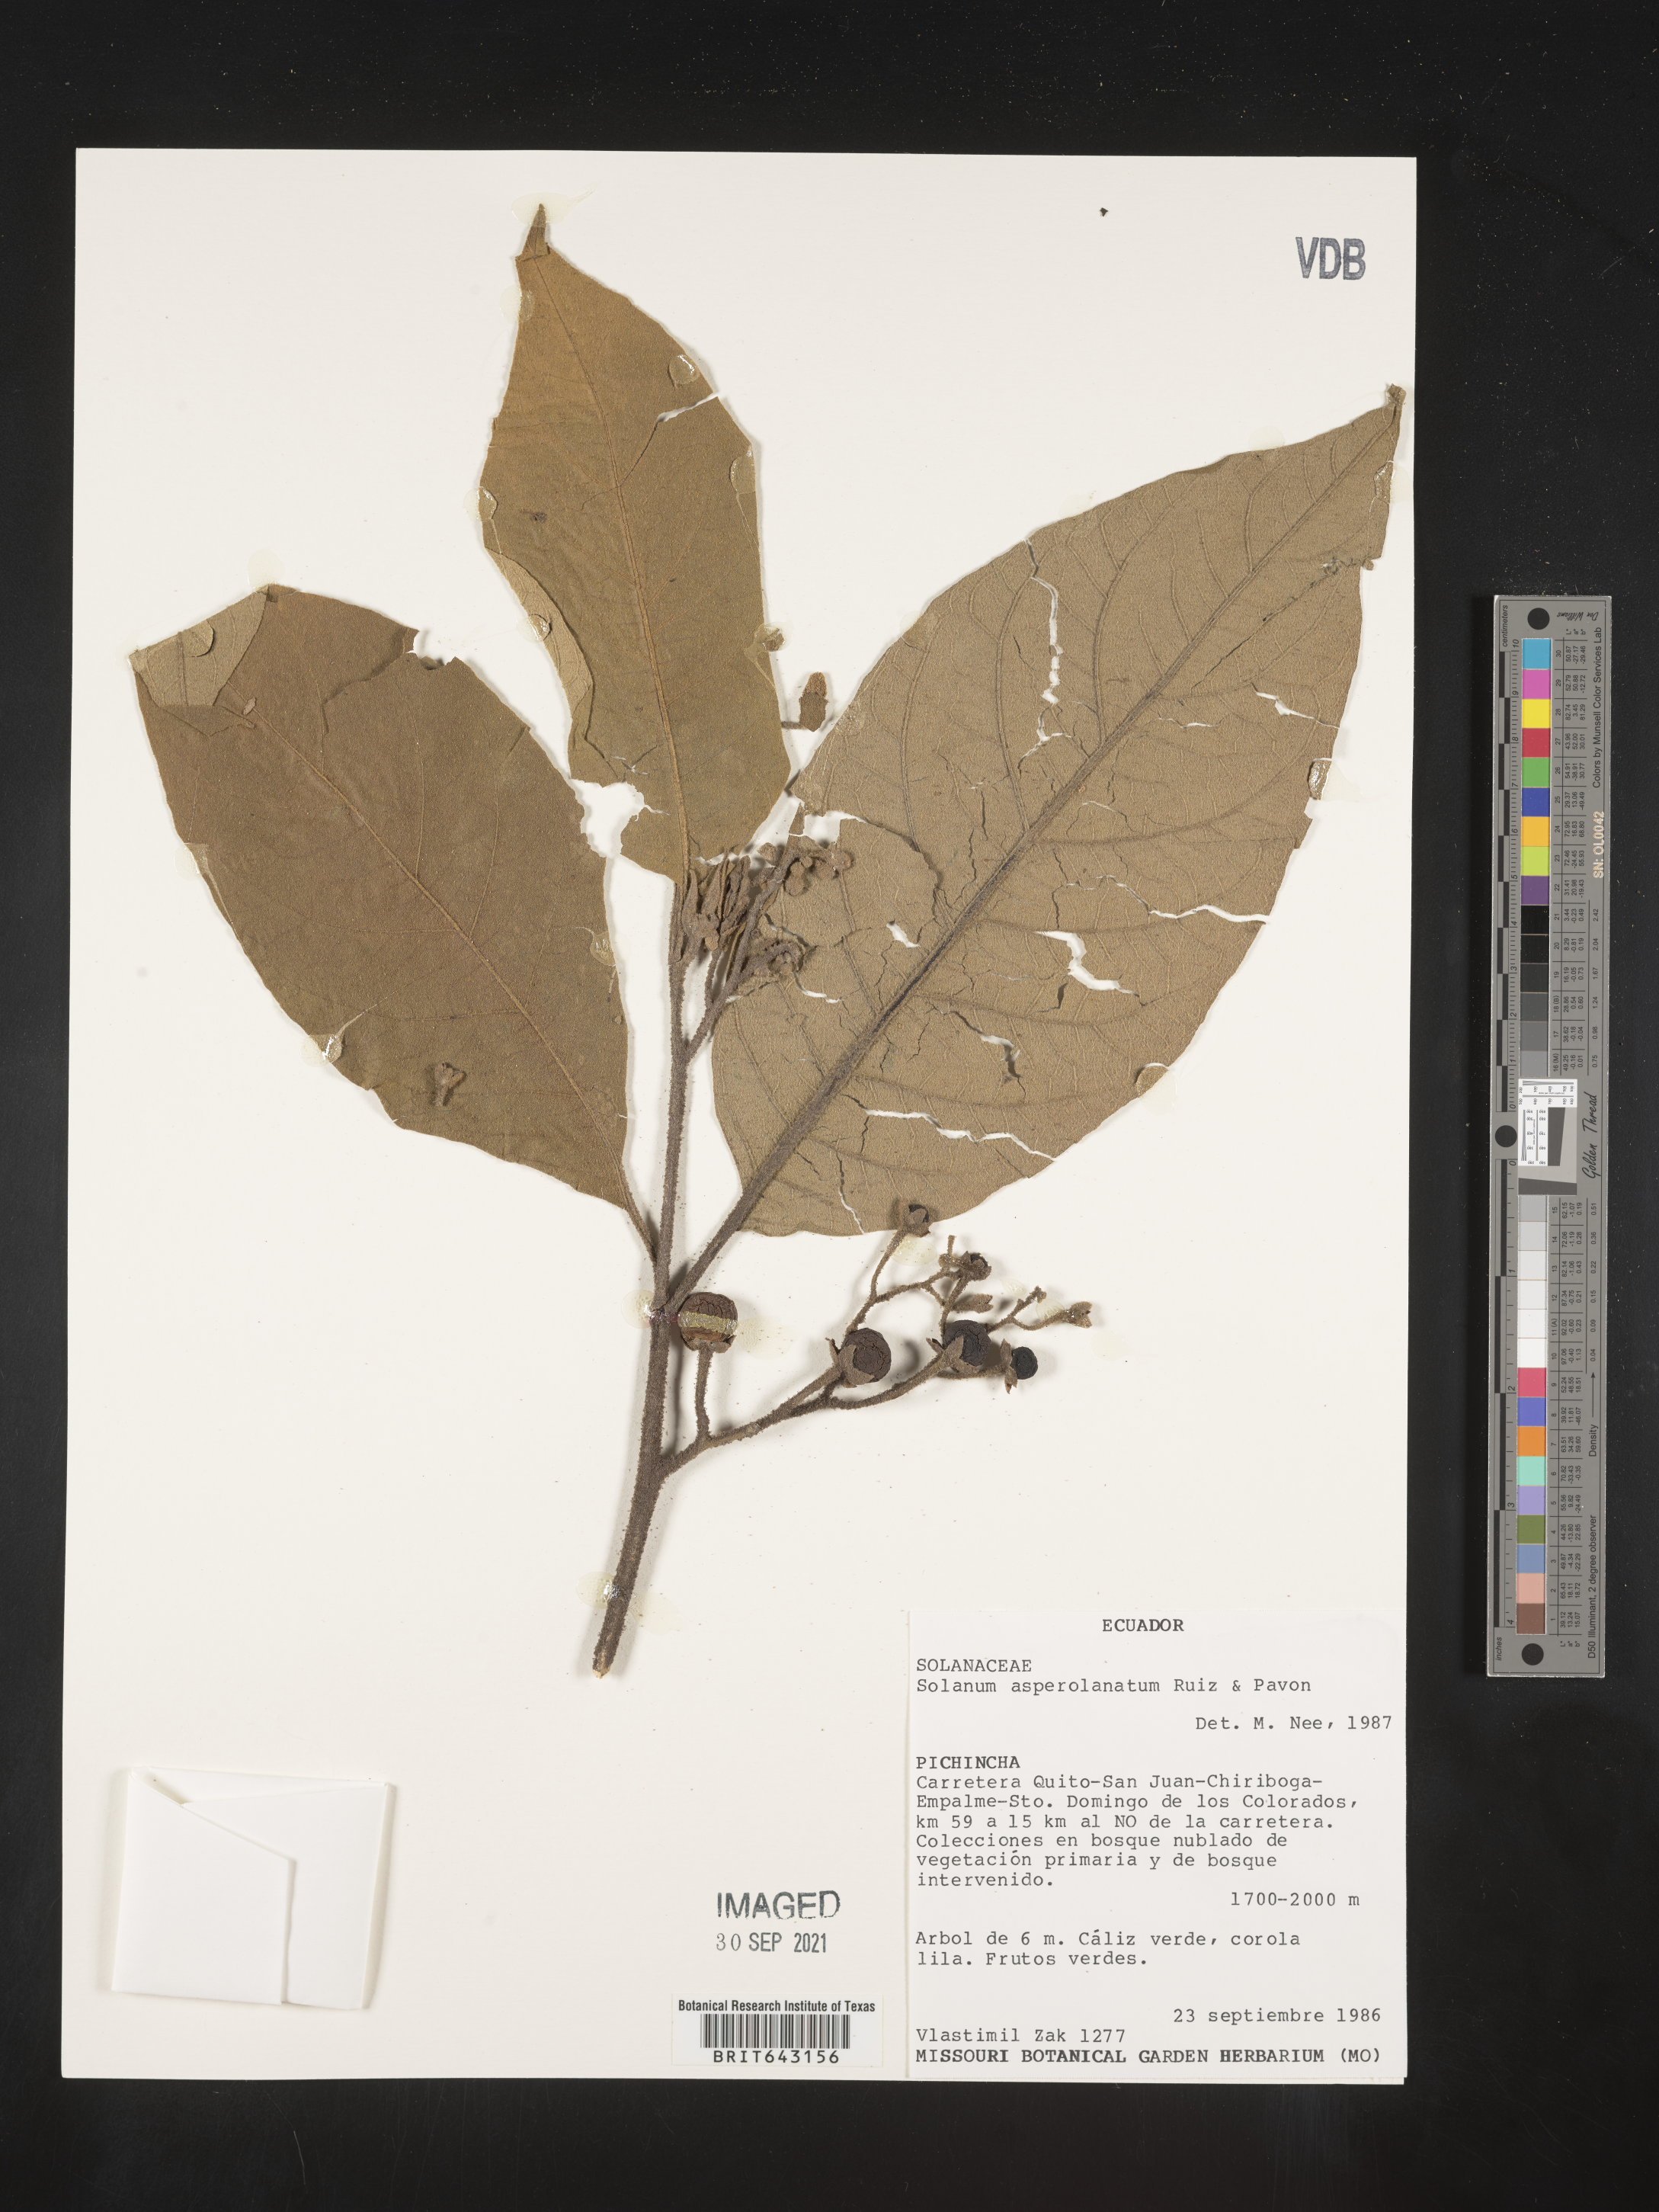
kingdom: Plantae
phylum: Tracheophyta
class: Magnoliopsida
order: Solanales
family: Solanaceae
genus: Solanum
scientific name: Solanum
